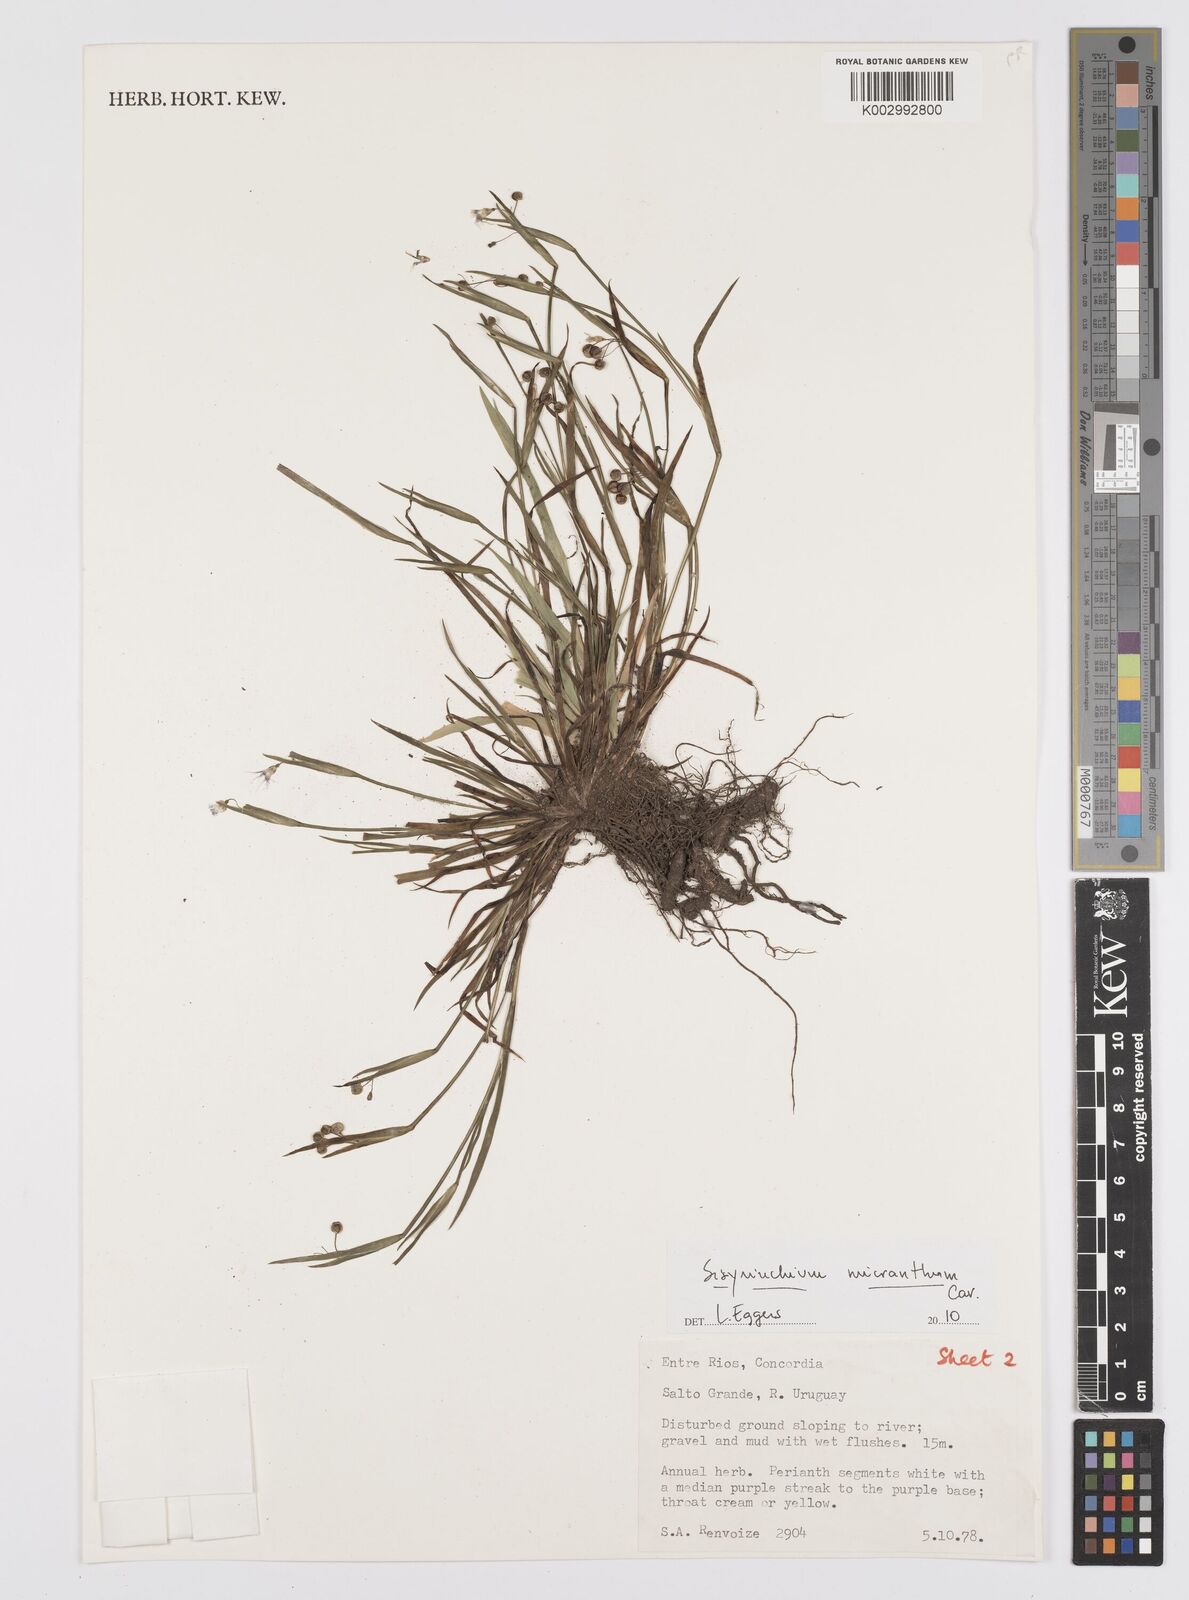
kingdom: Plantae
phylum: Tracheophyta
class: Liliopsida
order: Asparagales
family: Iridaceae
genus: Sisyrinchium
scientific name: Sisyrinchium micranthum
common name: Bermuda pigroot
